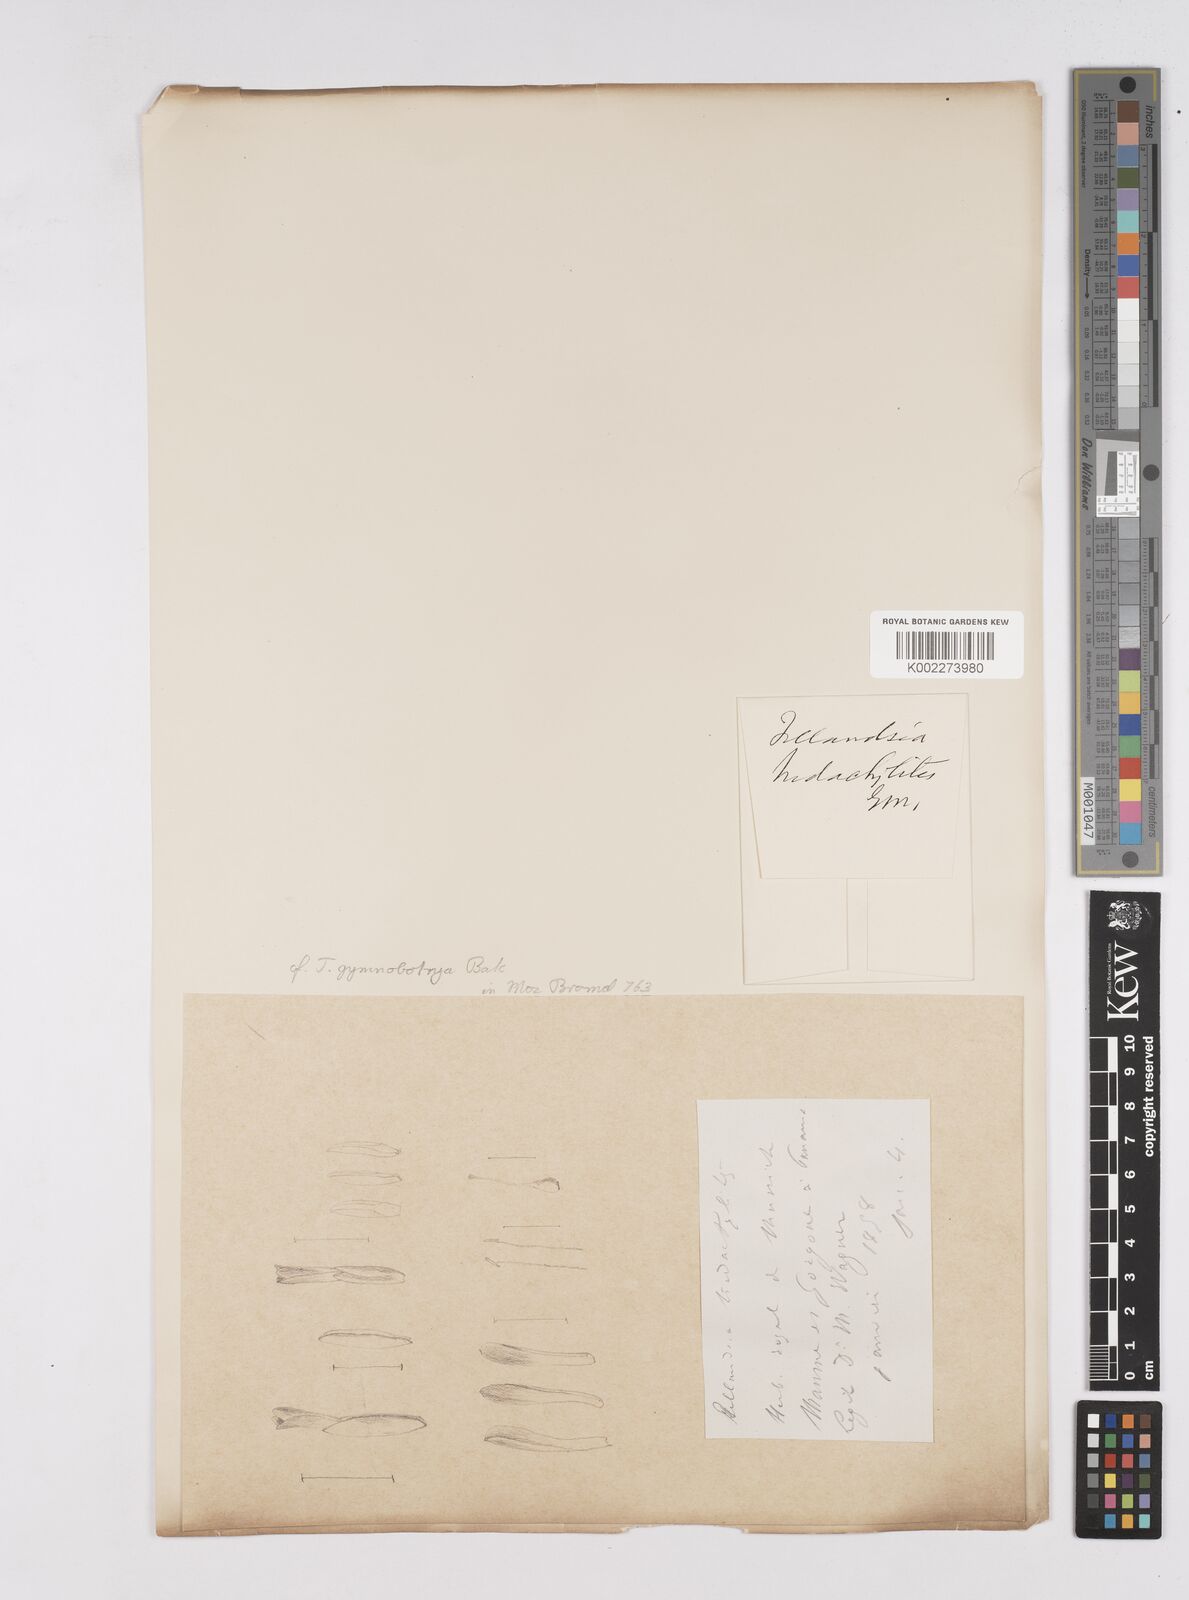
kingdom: Plantae
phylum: Tracheophyta
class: Liliopsida
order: Poales
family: Bromeliaceae
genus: Tillandsia
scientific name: Tillandsia gymnobotrya
